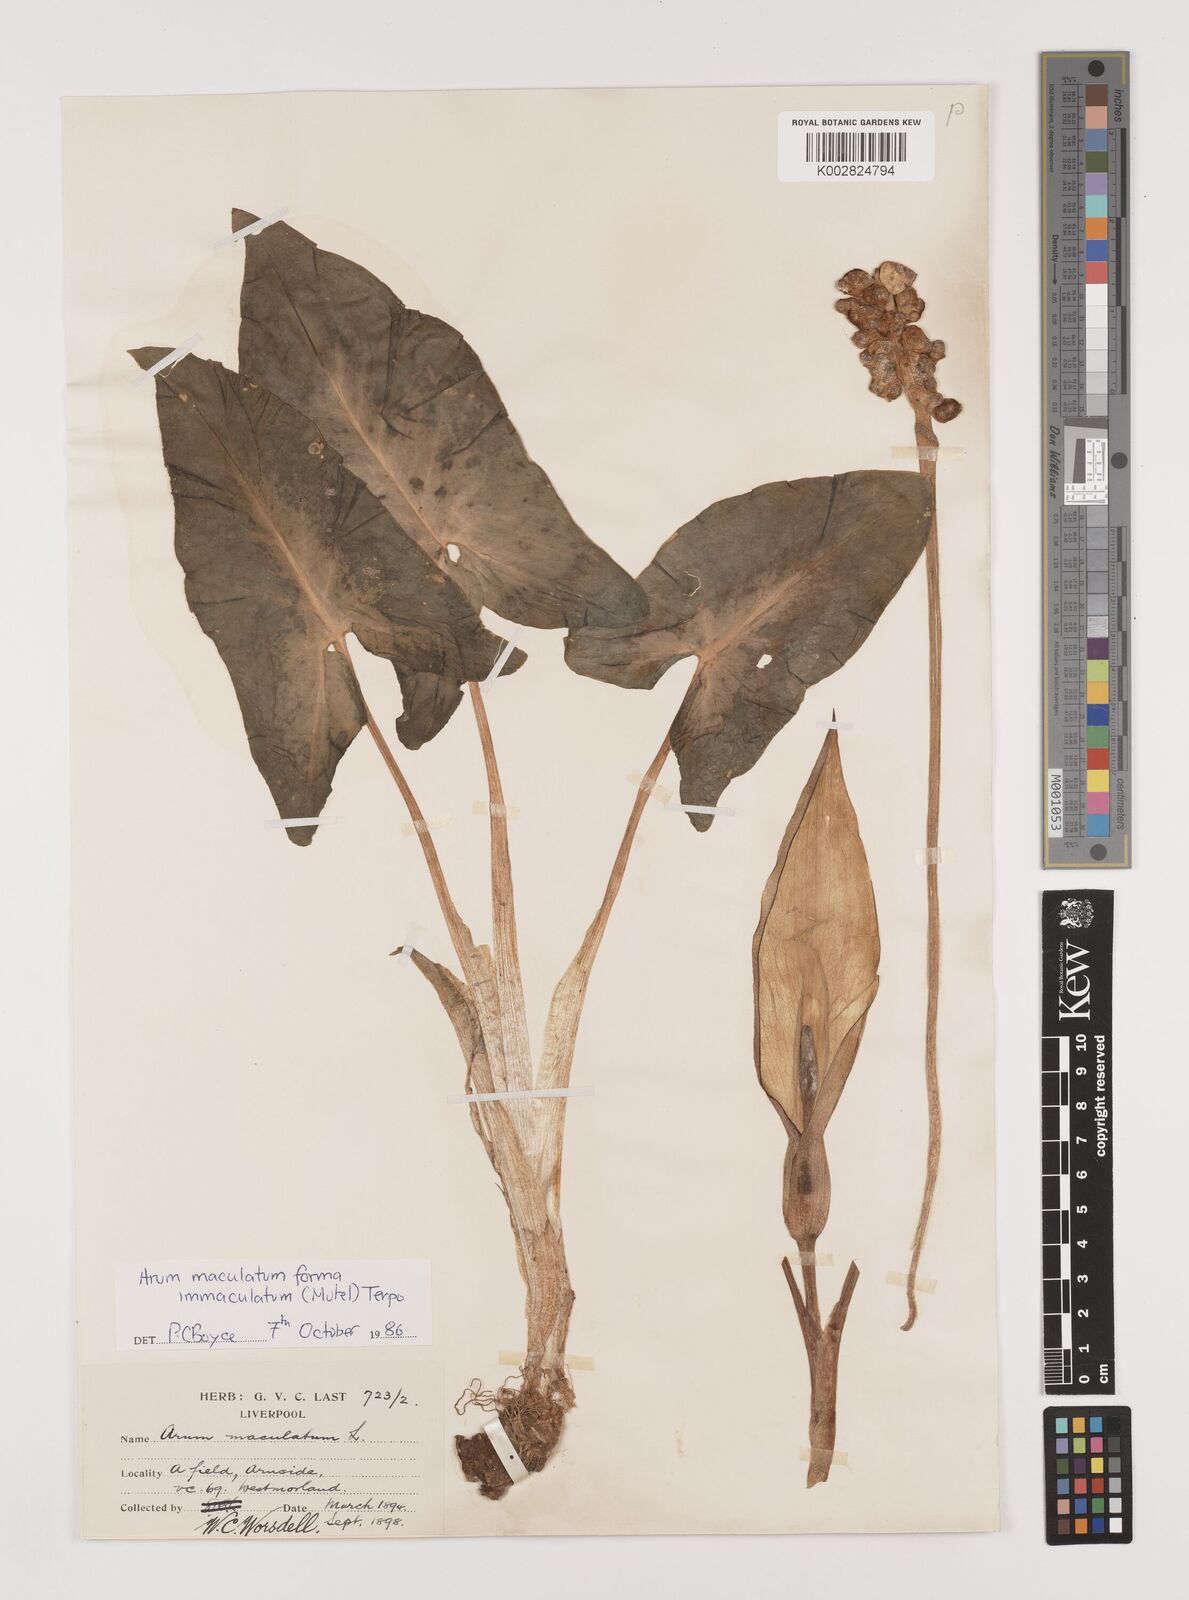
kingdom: Plantae
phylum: Tracheophyta
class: Liliopsida
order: Alismatales
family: Araceae
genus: Arum
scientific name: Arum maculatum
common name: Lords-and-ladies
